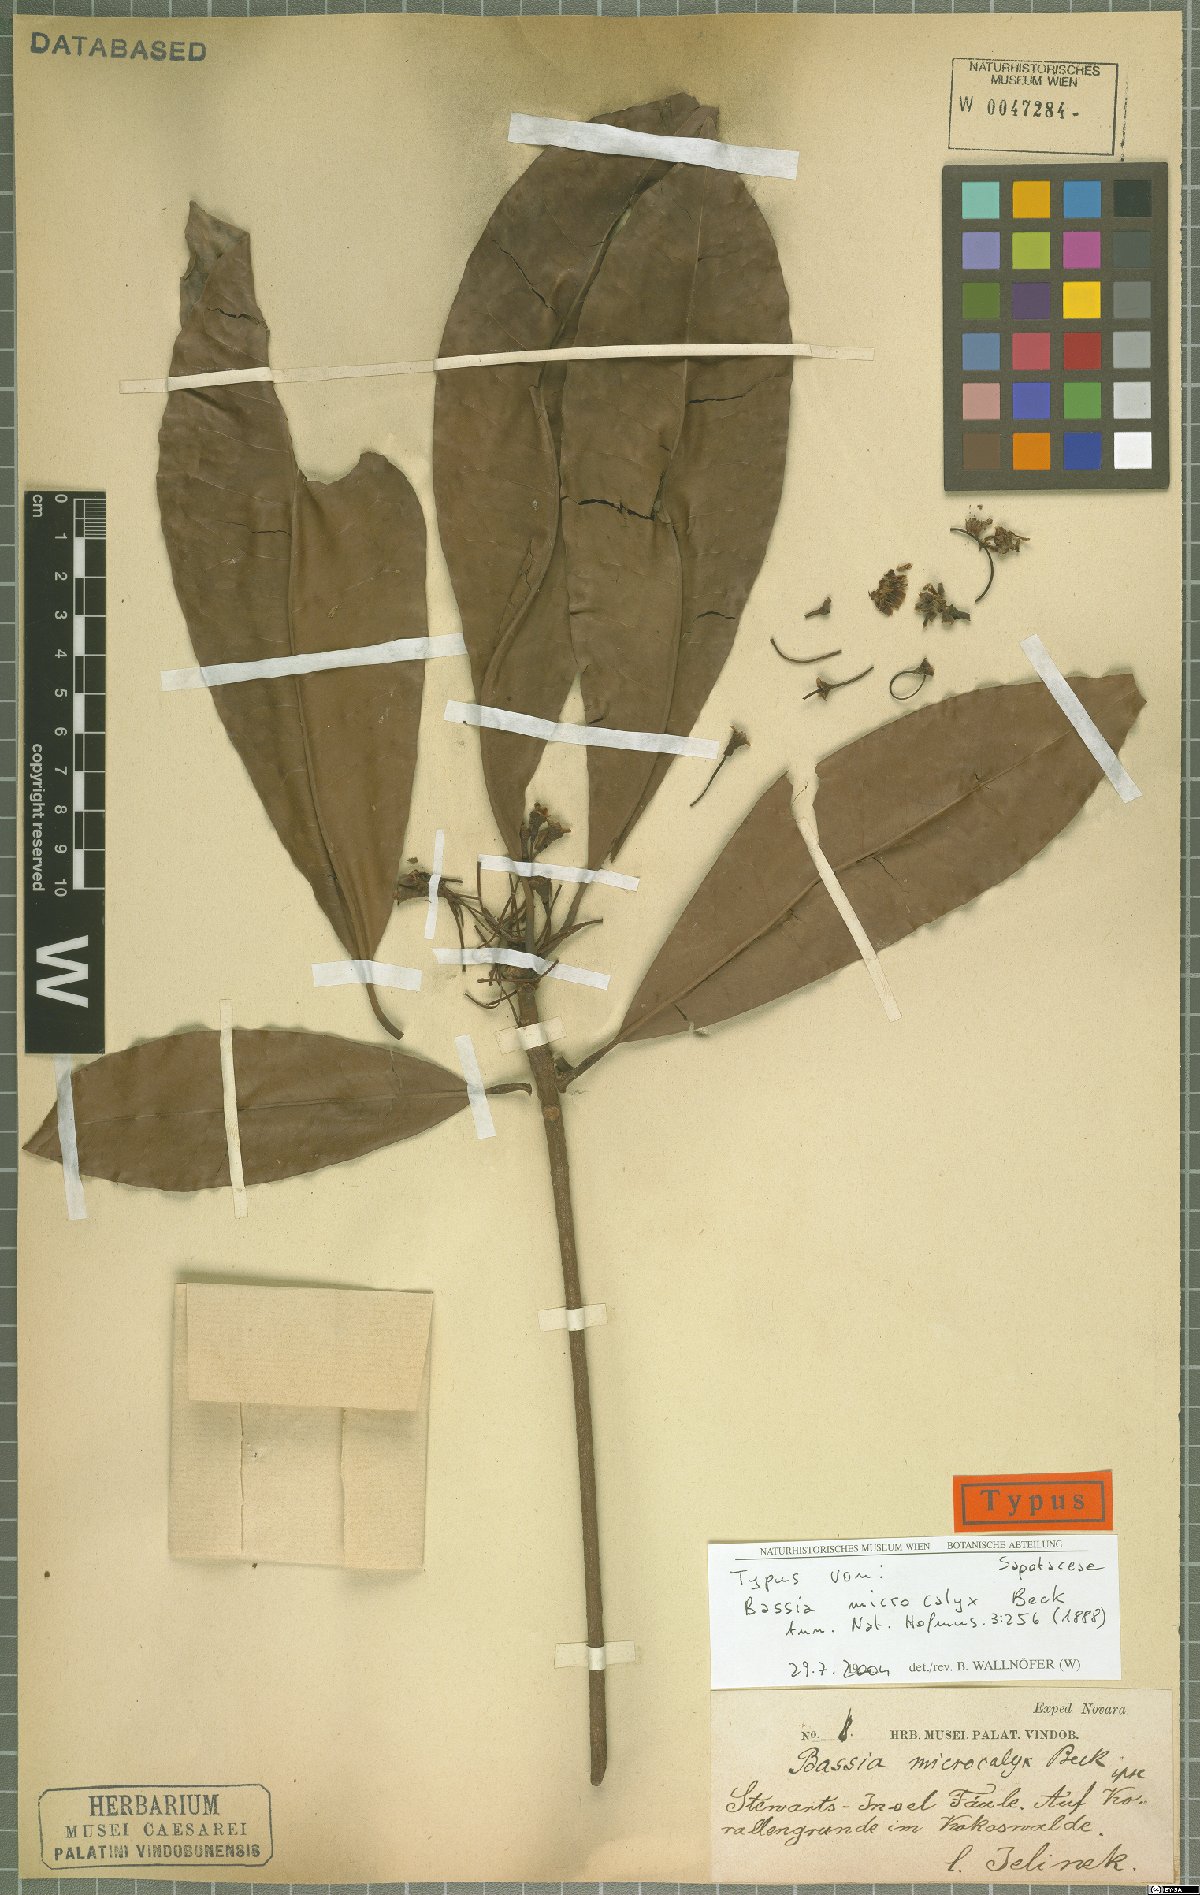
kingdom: Plantae
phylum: Tracheophyta
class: Magnoliopsida
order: Ericales
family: Sapotaceae
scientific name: Sapotaceae
